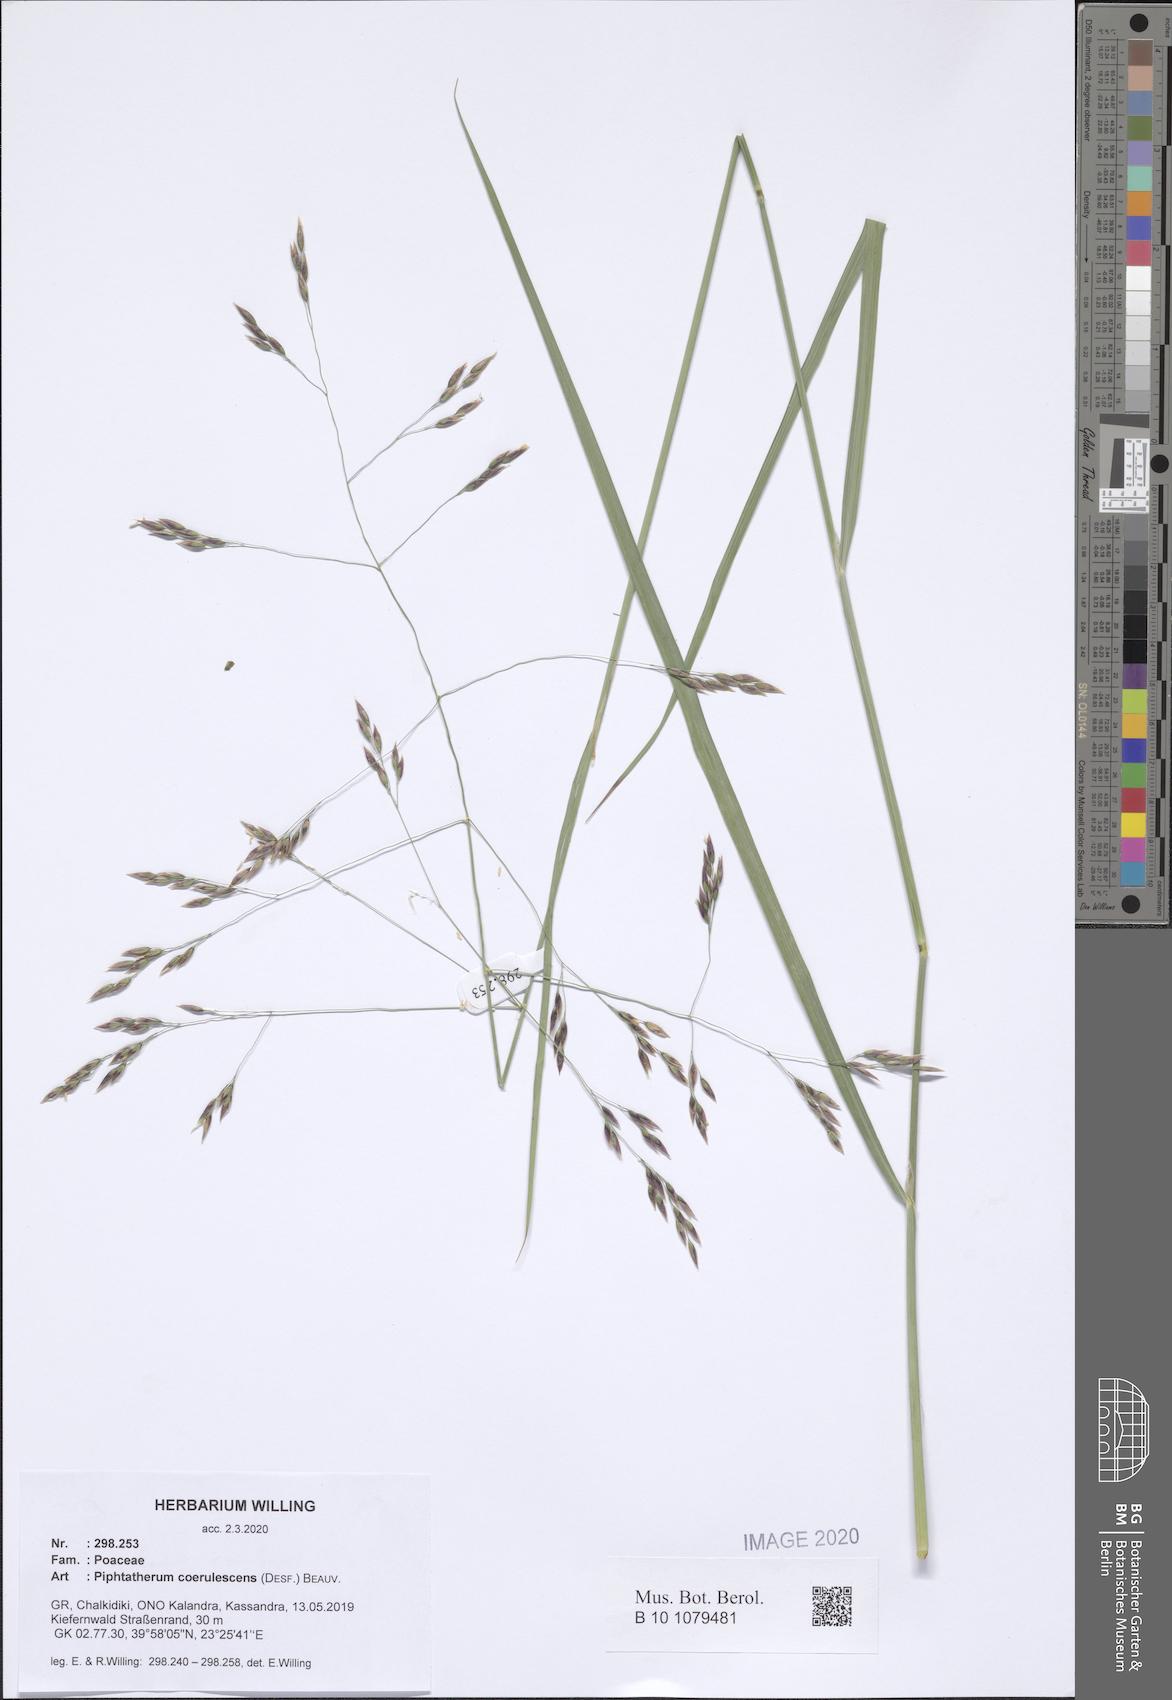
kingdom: Plantae
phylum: Tracheophyta
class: Liliopsida
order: Poales
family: Poaceae
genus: Piptatherum
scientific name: Piptatherum coerulescens
